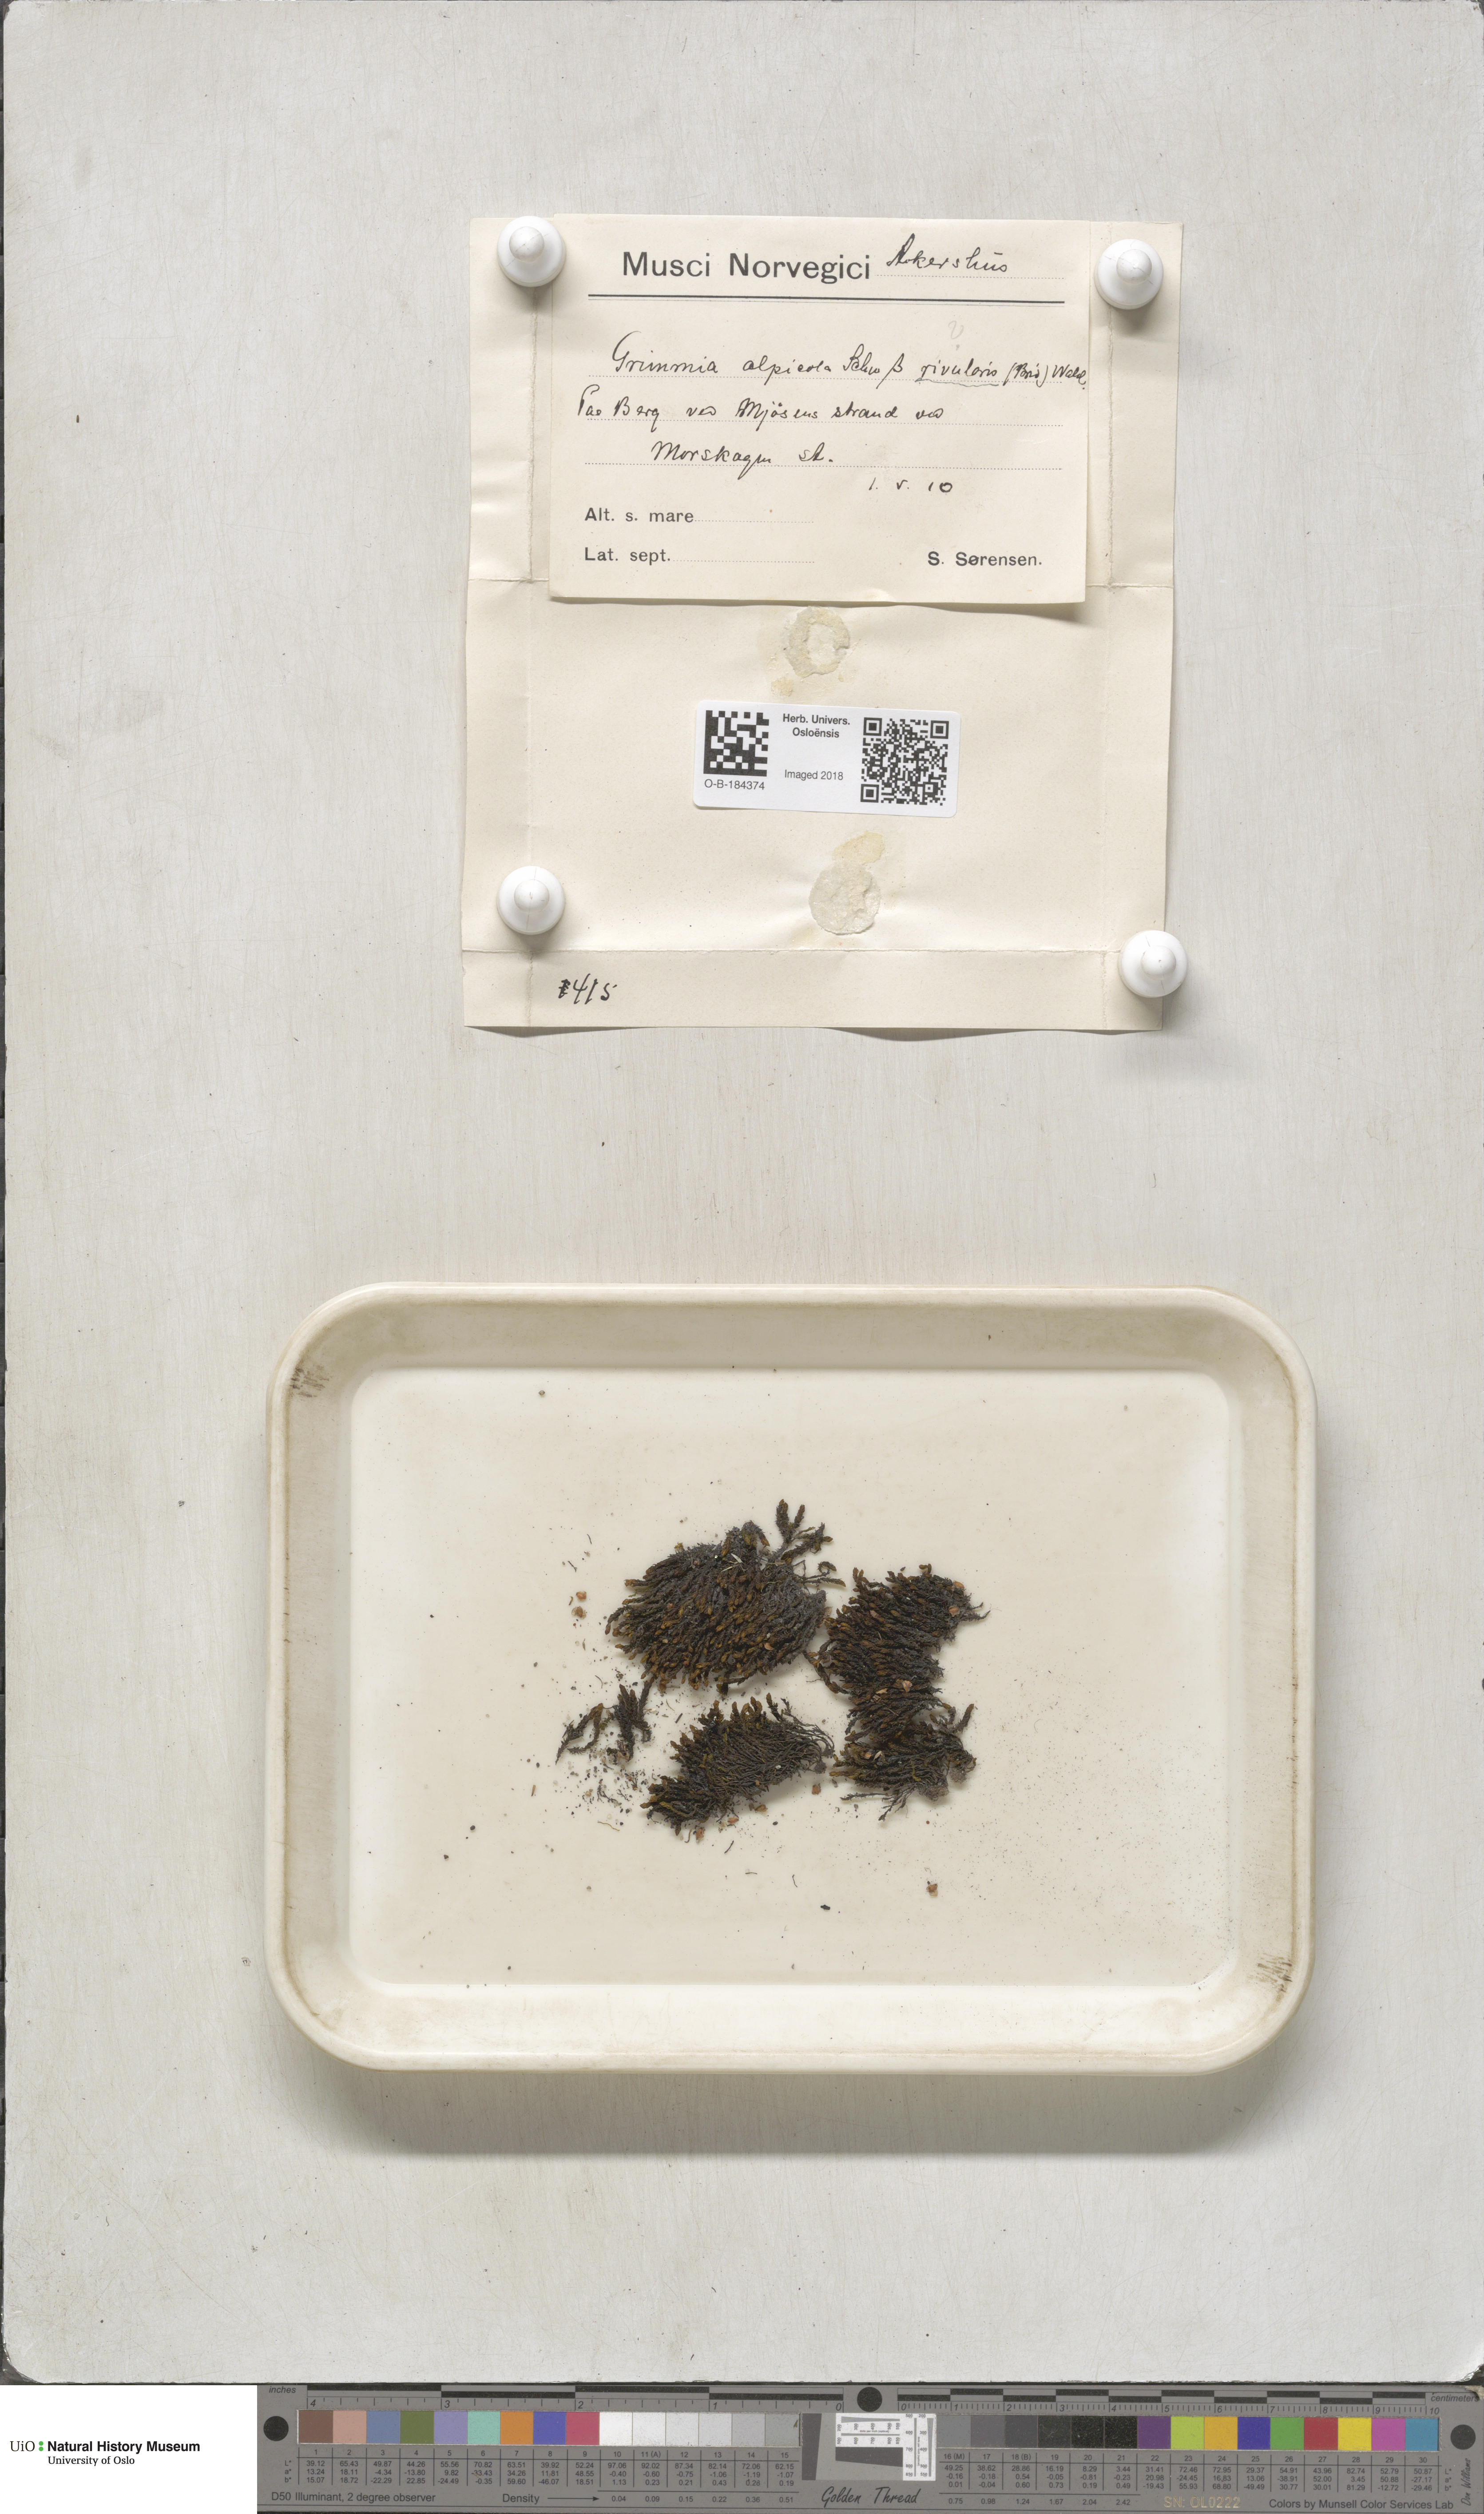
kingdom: Plantae
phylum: Bryophyta
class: Bryopsida
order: Grimmiales
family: Grimmiaceae
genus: Schistidium
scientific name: Schistidium rivulare
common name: River bloom moss
